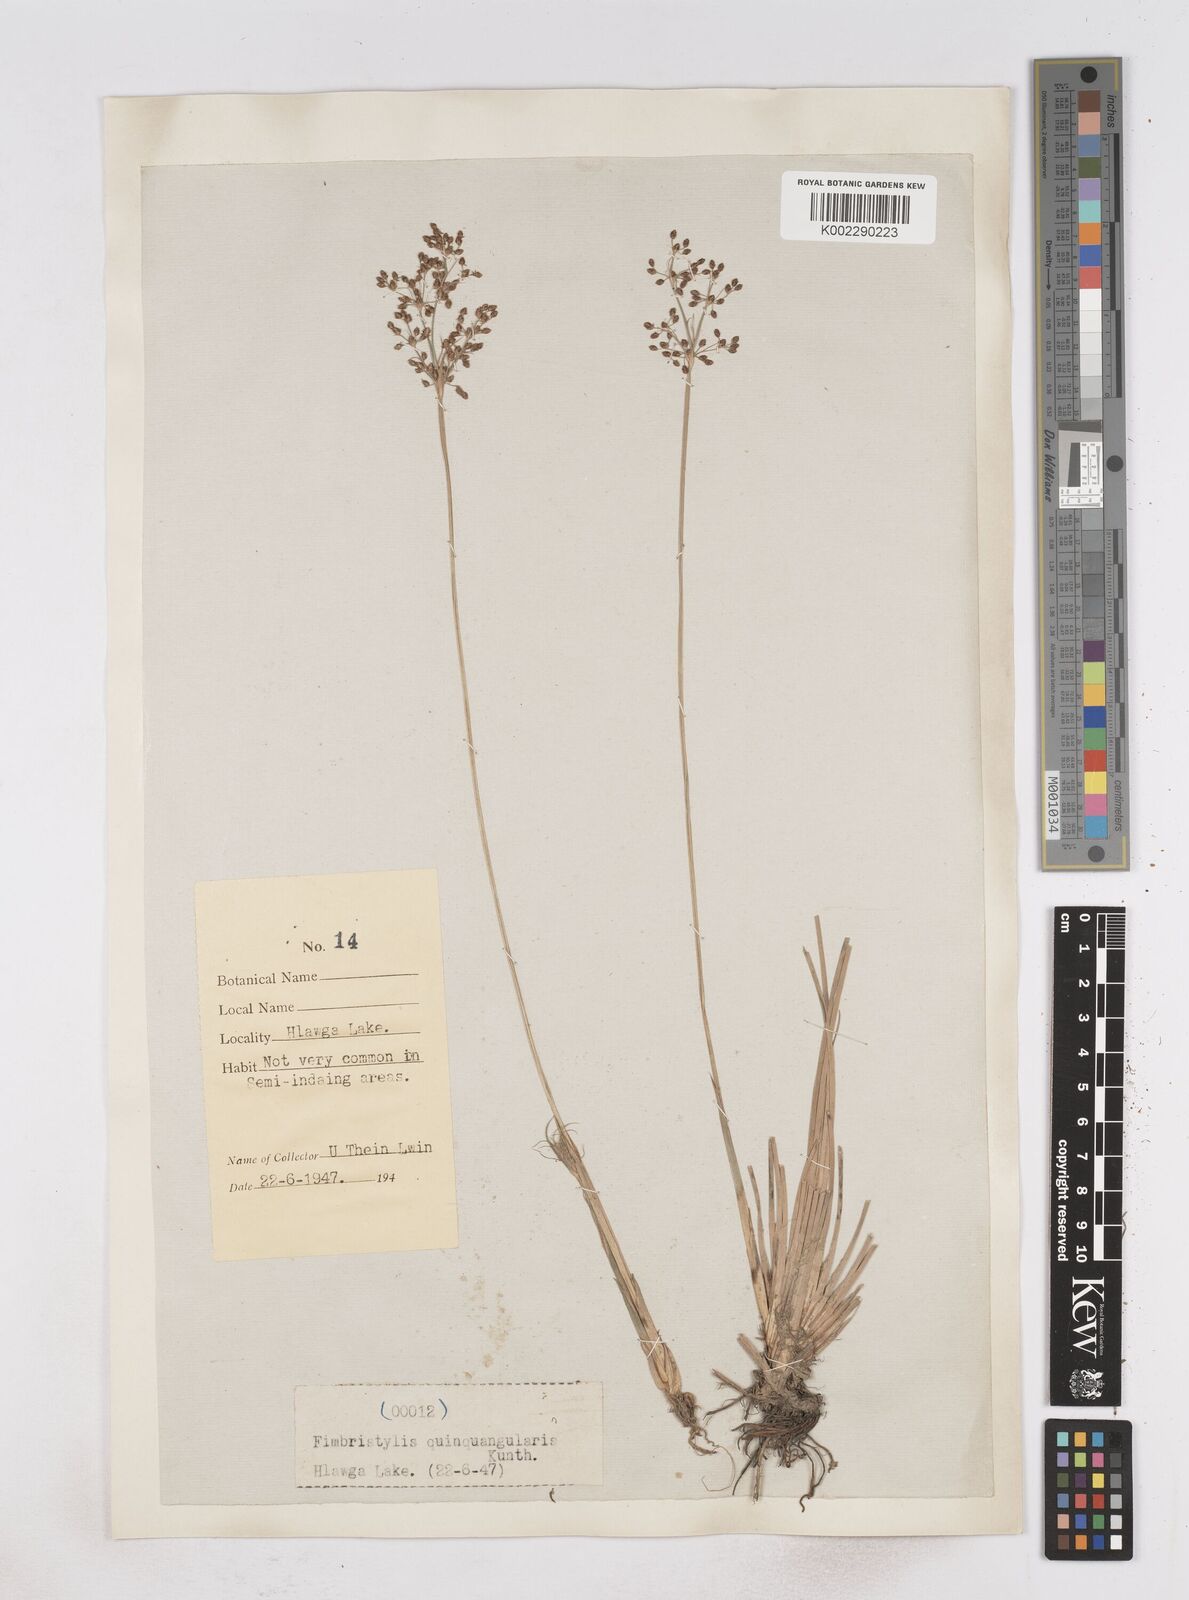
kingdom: Plantae
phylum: Tracheophyta
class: Liliopsida
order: Poales
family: Cyperaceae
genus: Fimbristylis
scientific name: Fimbristylis
